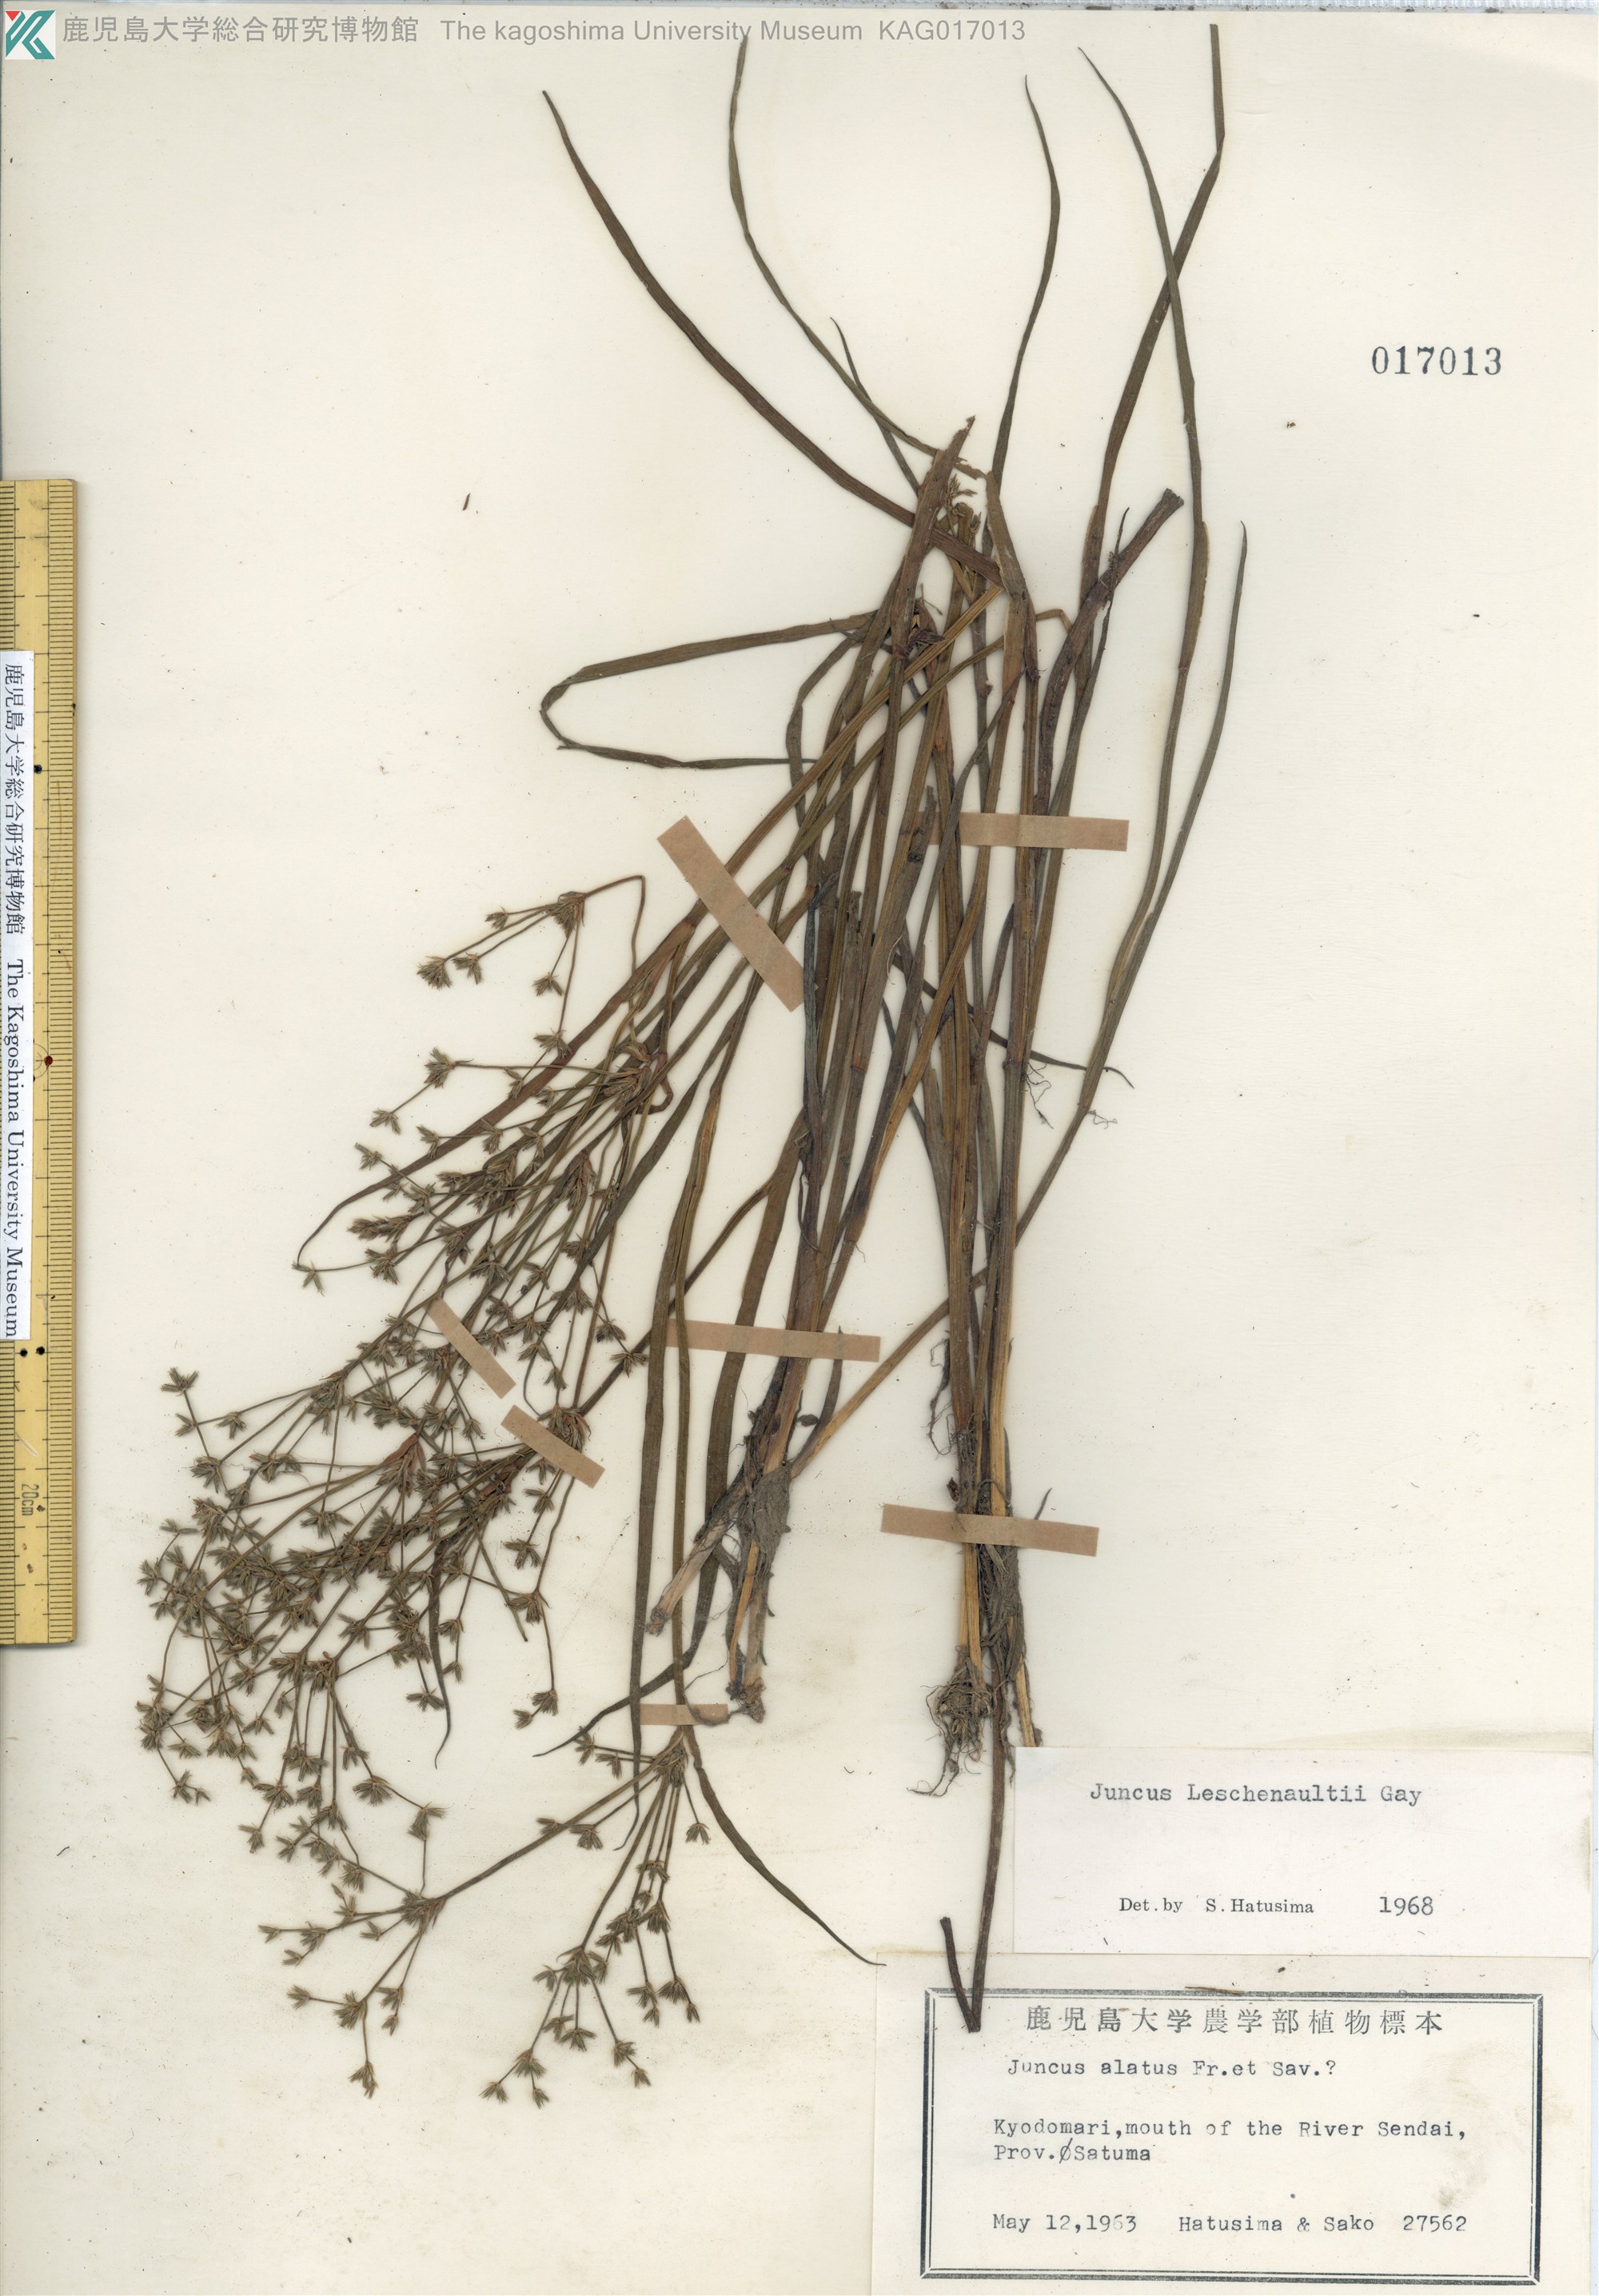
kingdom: Plantae
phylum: Tracheophyta
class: Liliopsida
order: Poales
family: Juncaceae
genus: Juncus
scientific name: Juncus prismatocarpus
